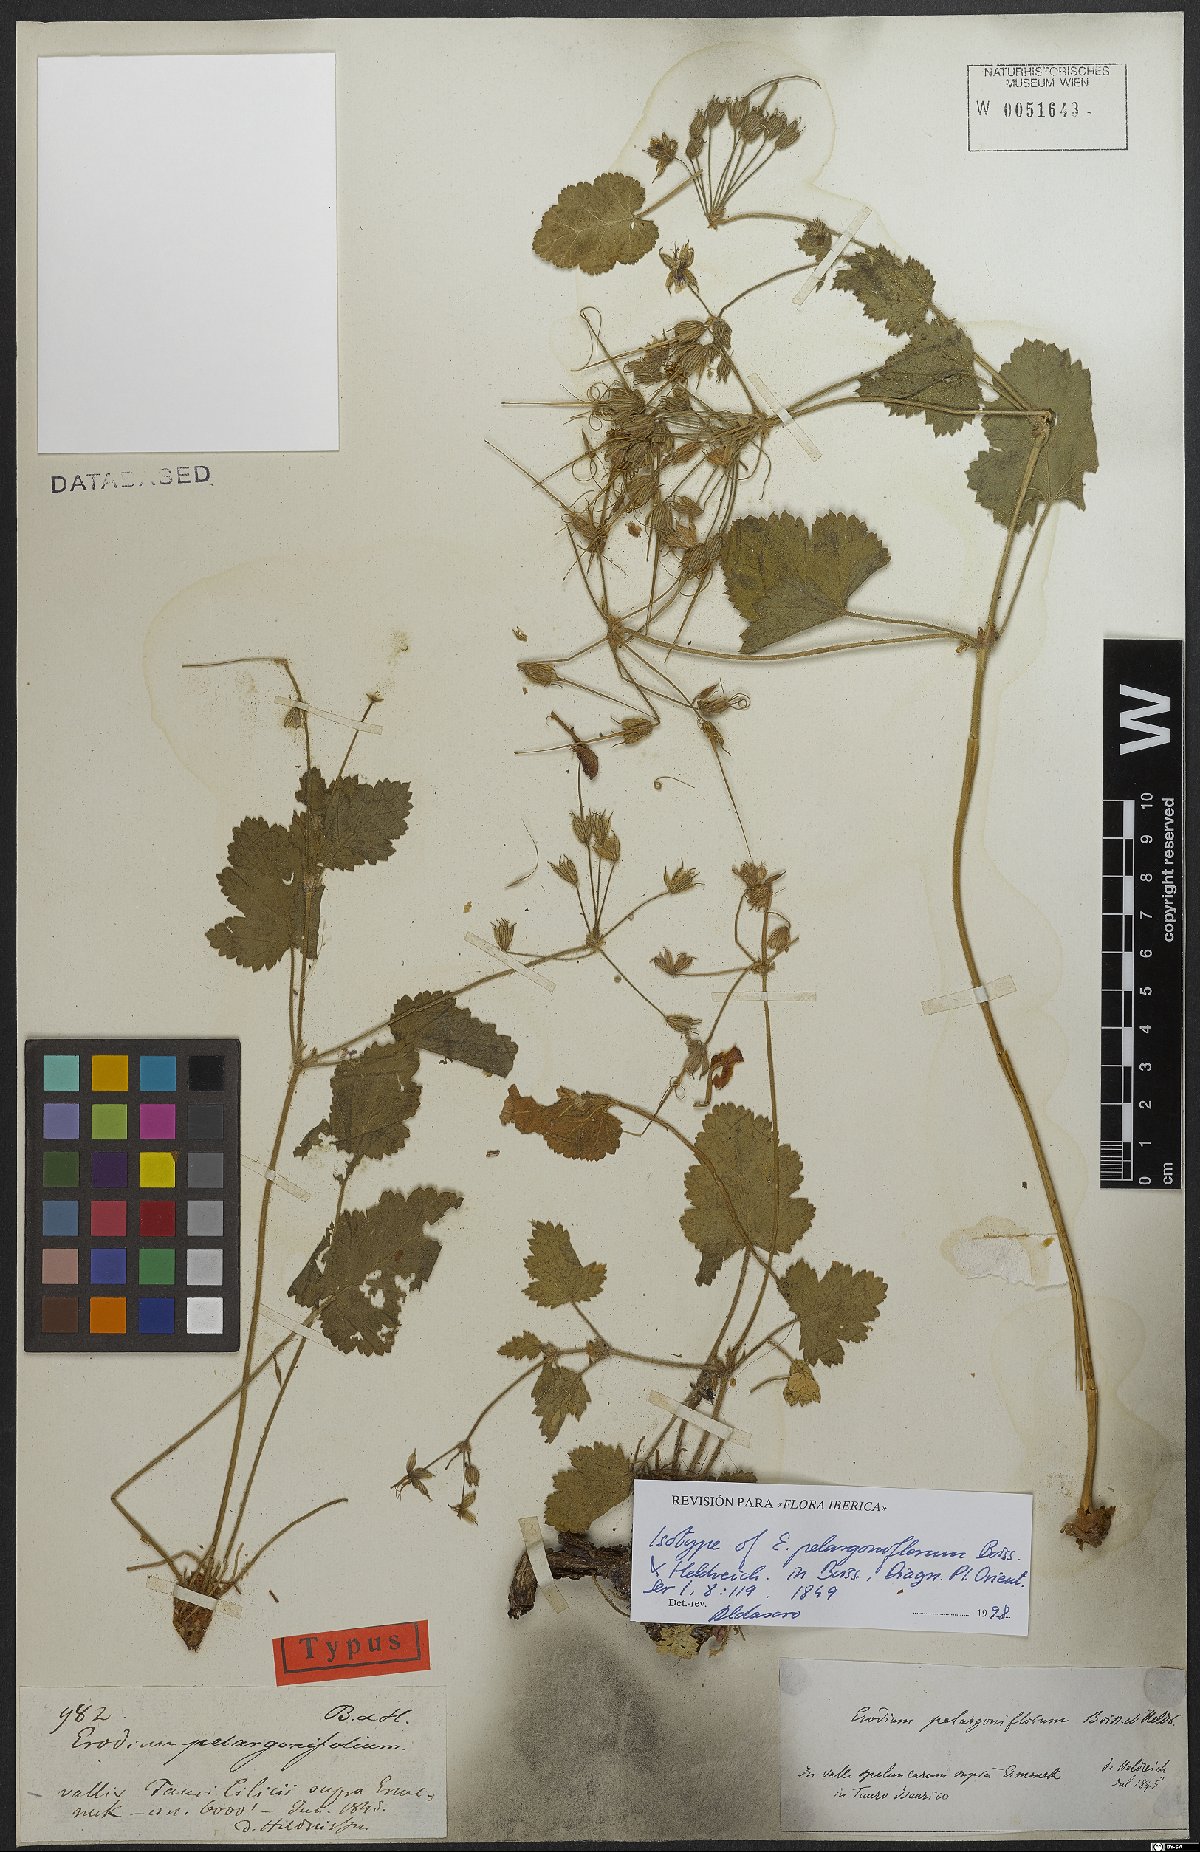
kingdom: Plantae
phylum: Tracheophyta
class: Magnoliopsida
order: Geraniales
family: Geraniaceae
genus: Erodium
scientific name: Erodium pelargoniiflorum
